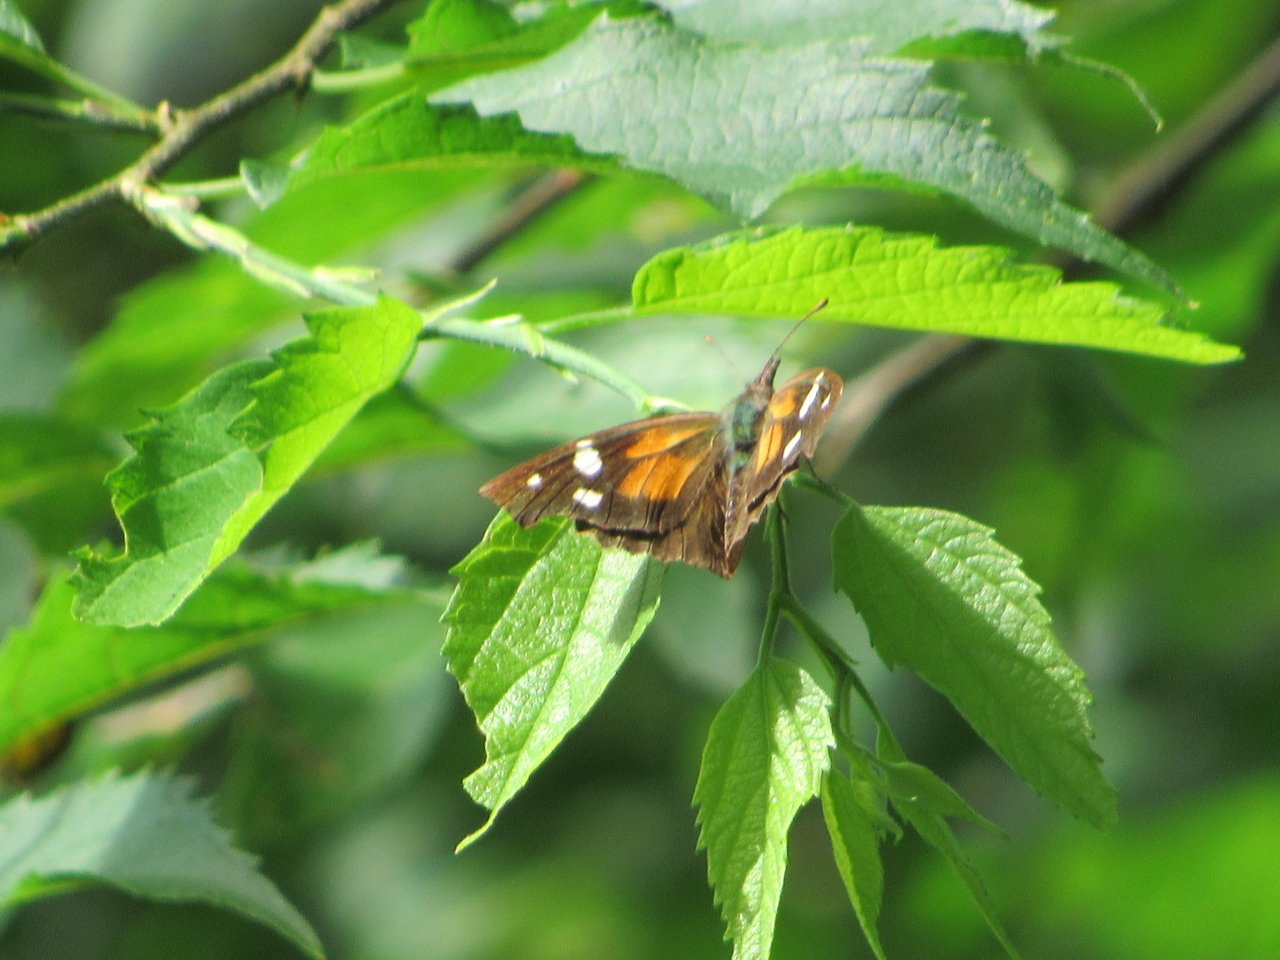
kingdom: Animalia
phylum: Arthropoda
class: Insecta
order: Lepidoptera
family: Nymphalidae
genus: Libytheana
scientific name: Libytheana carinenta
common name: American Snout
